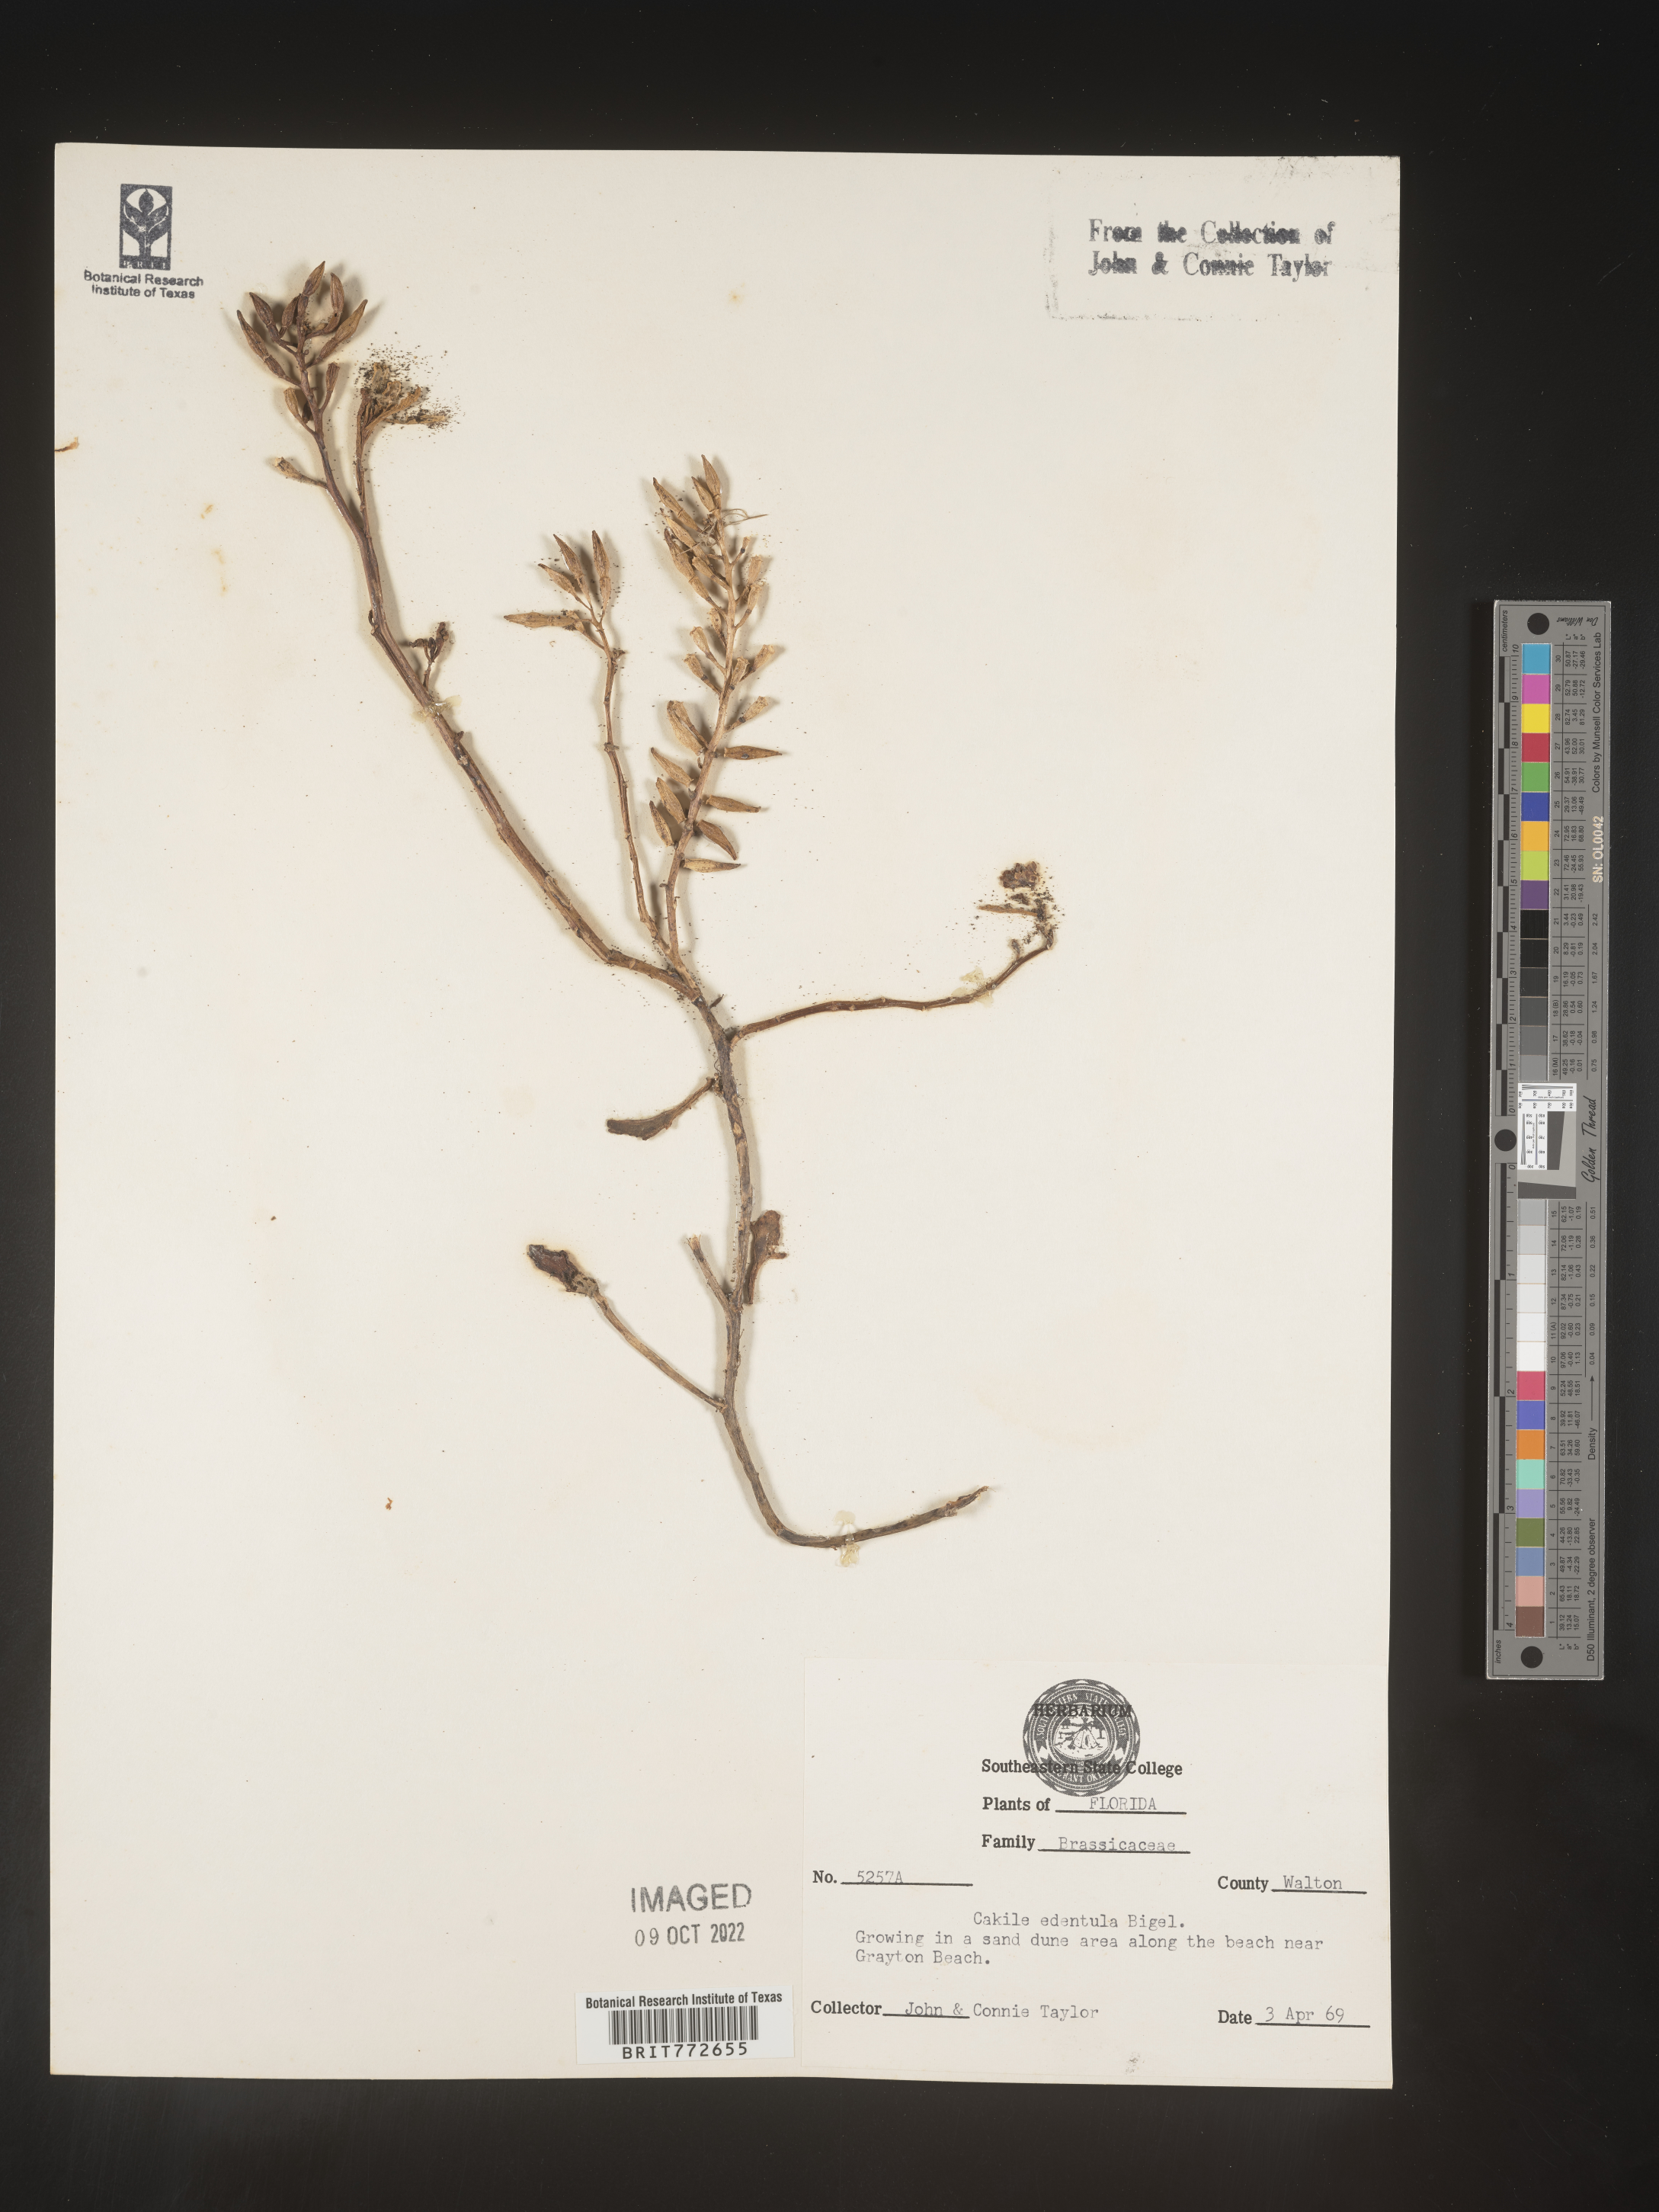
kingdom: Plantae
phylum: Tracheophyta
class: Magnoliopsida
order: Brassicales
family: Brassicaceae
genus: Cakile
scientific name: Cakile edentula
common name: American sea rocket
